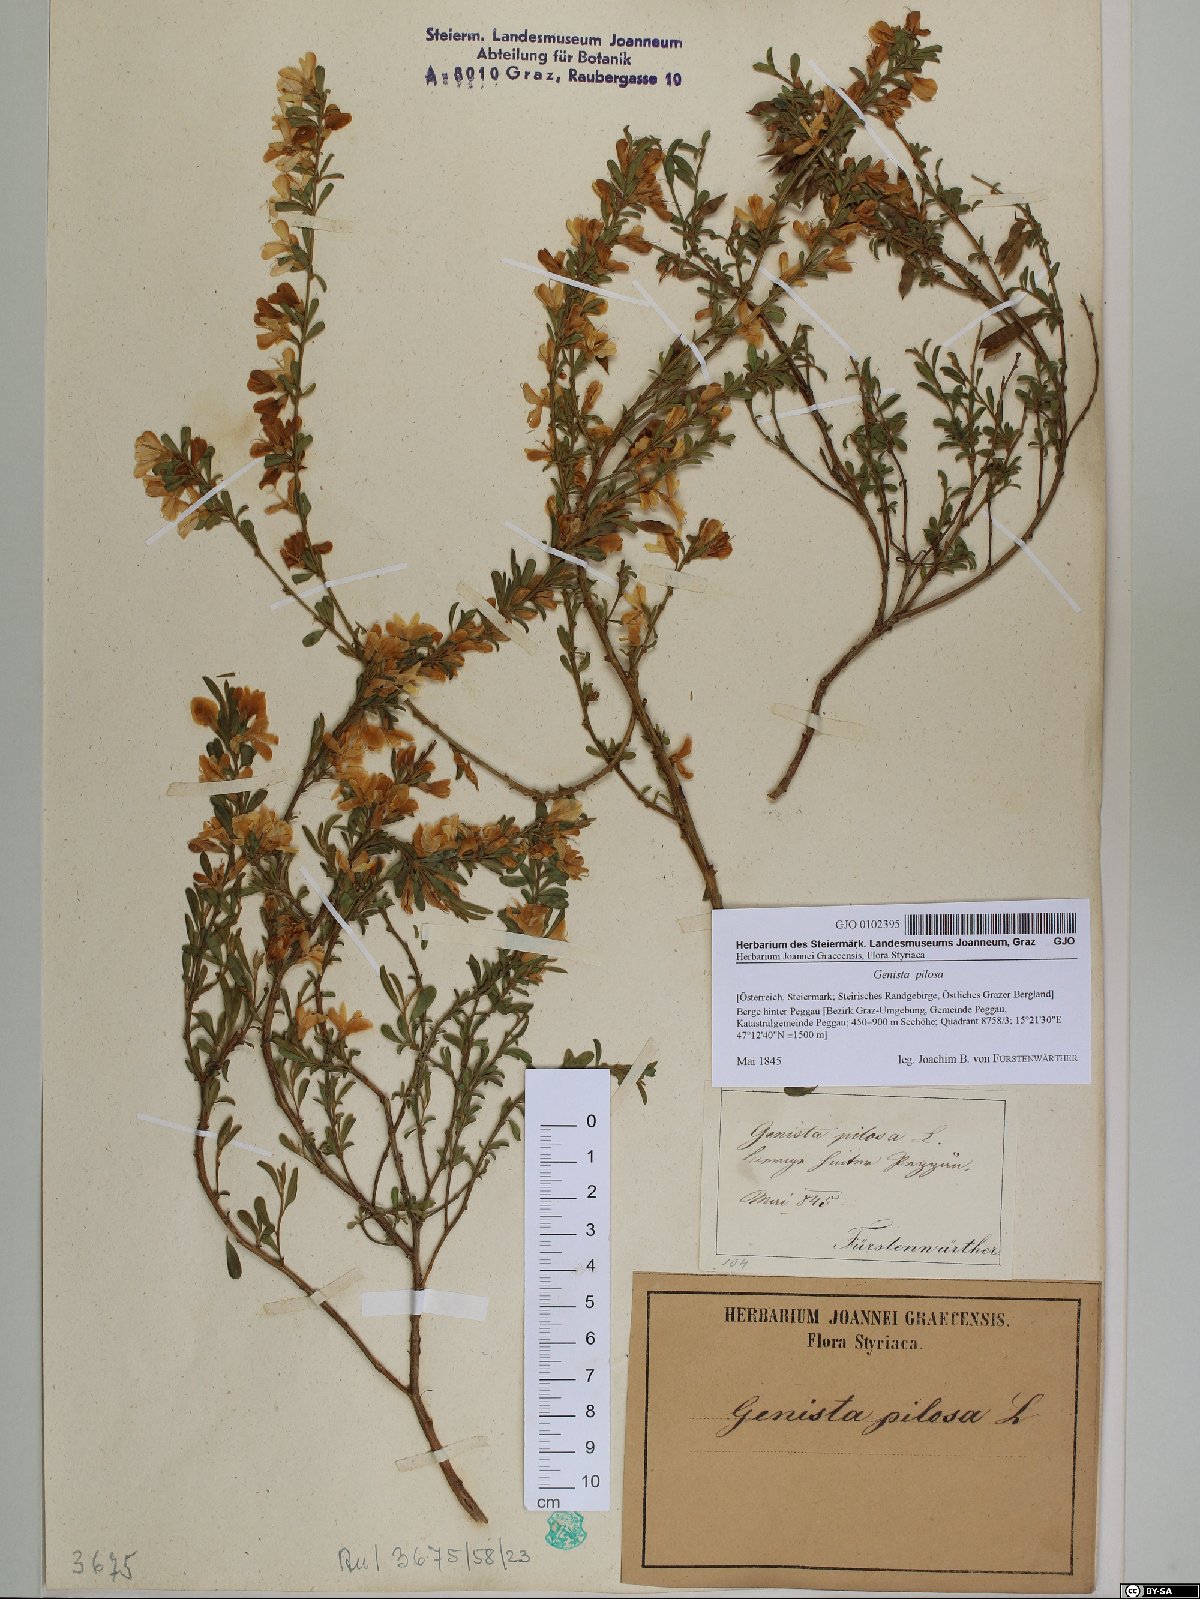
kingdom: Plantae
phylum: Tracheophyta
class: Magnoliopsida
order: Fabales
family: Fabaceae
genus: Genista
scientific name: Genista pilosa
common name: Hairy greenweed
